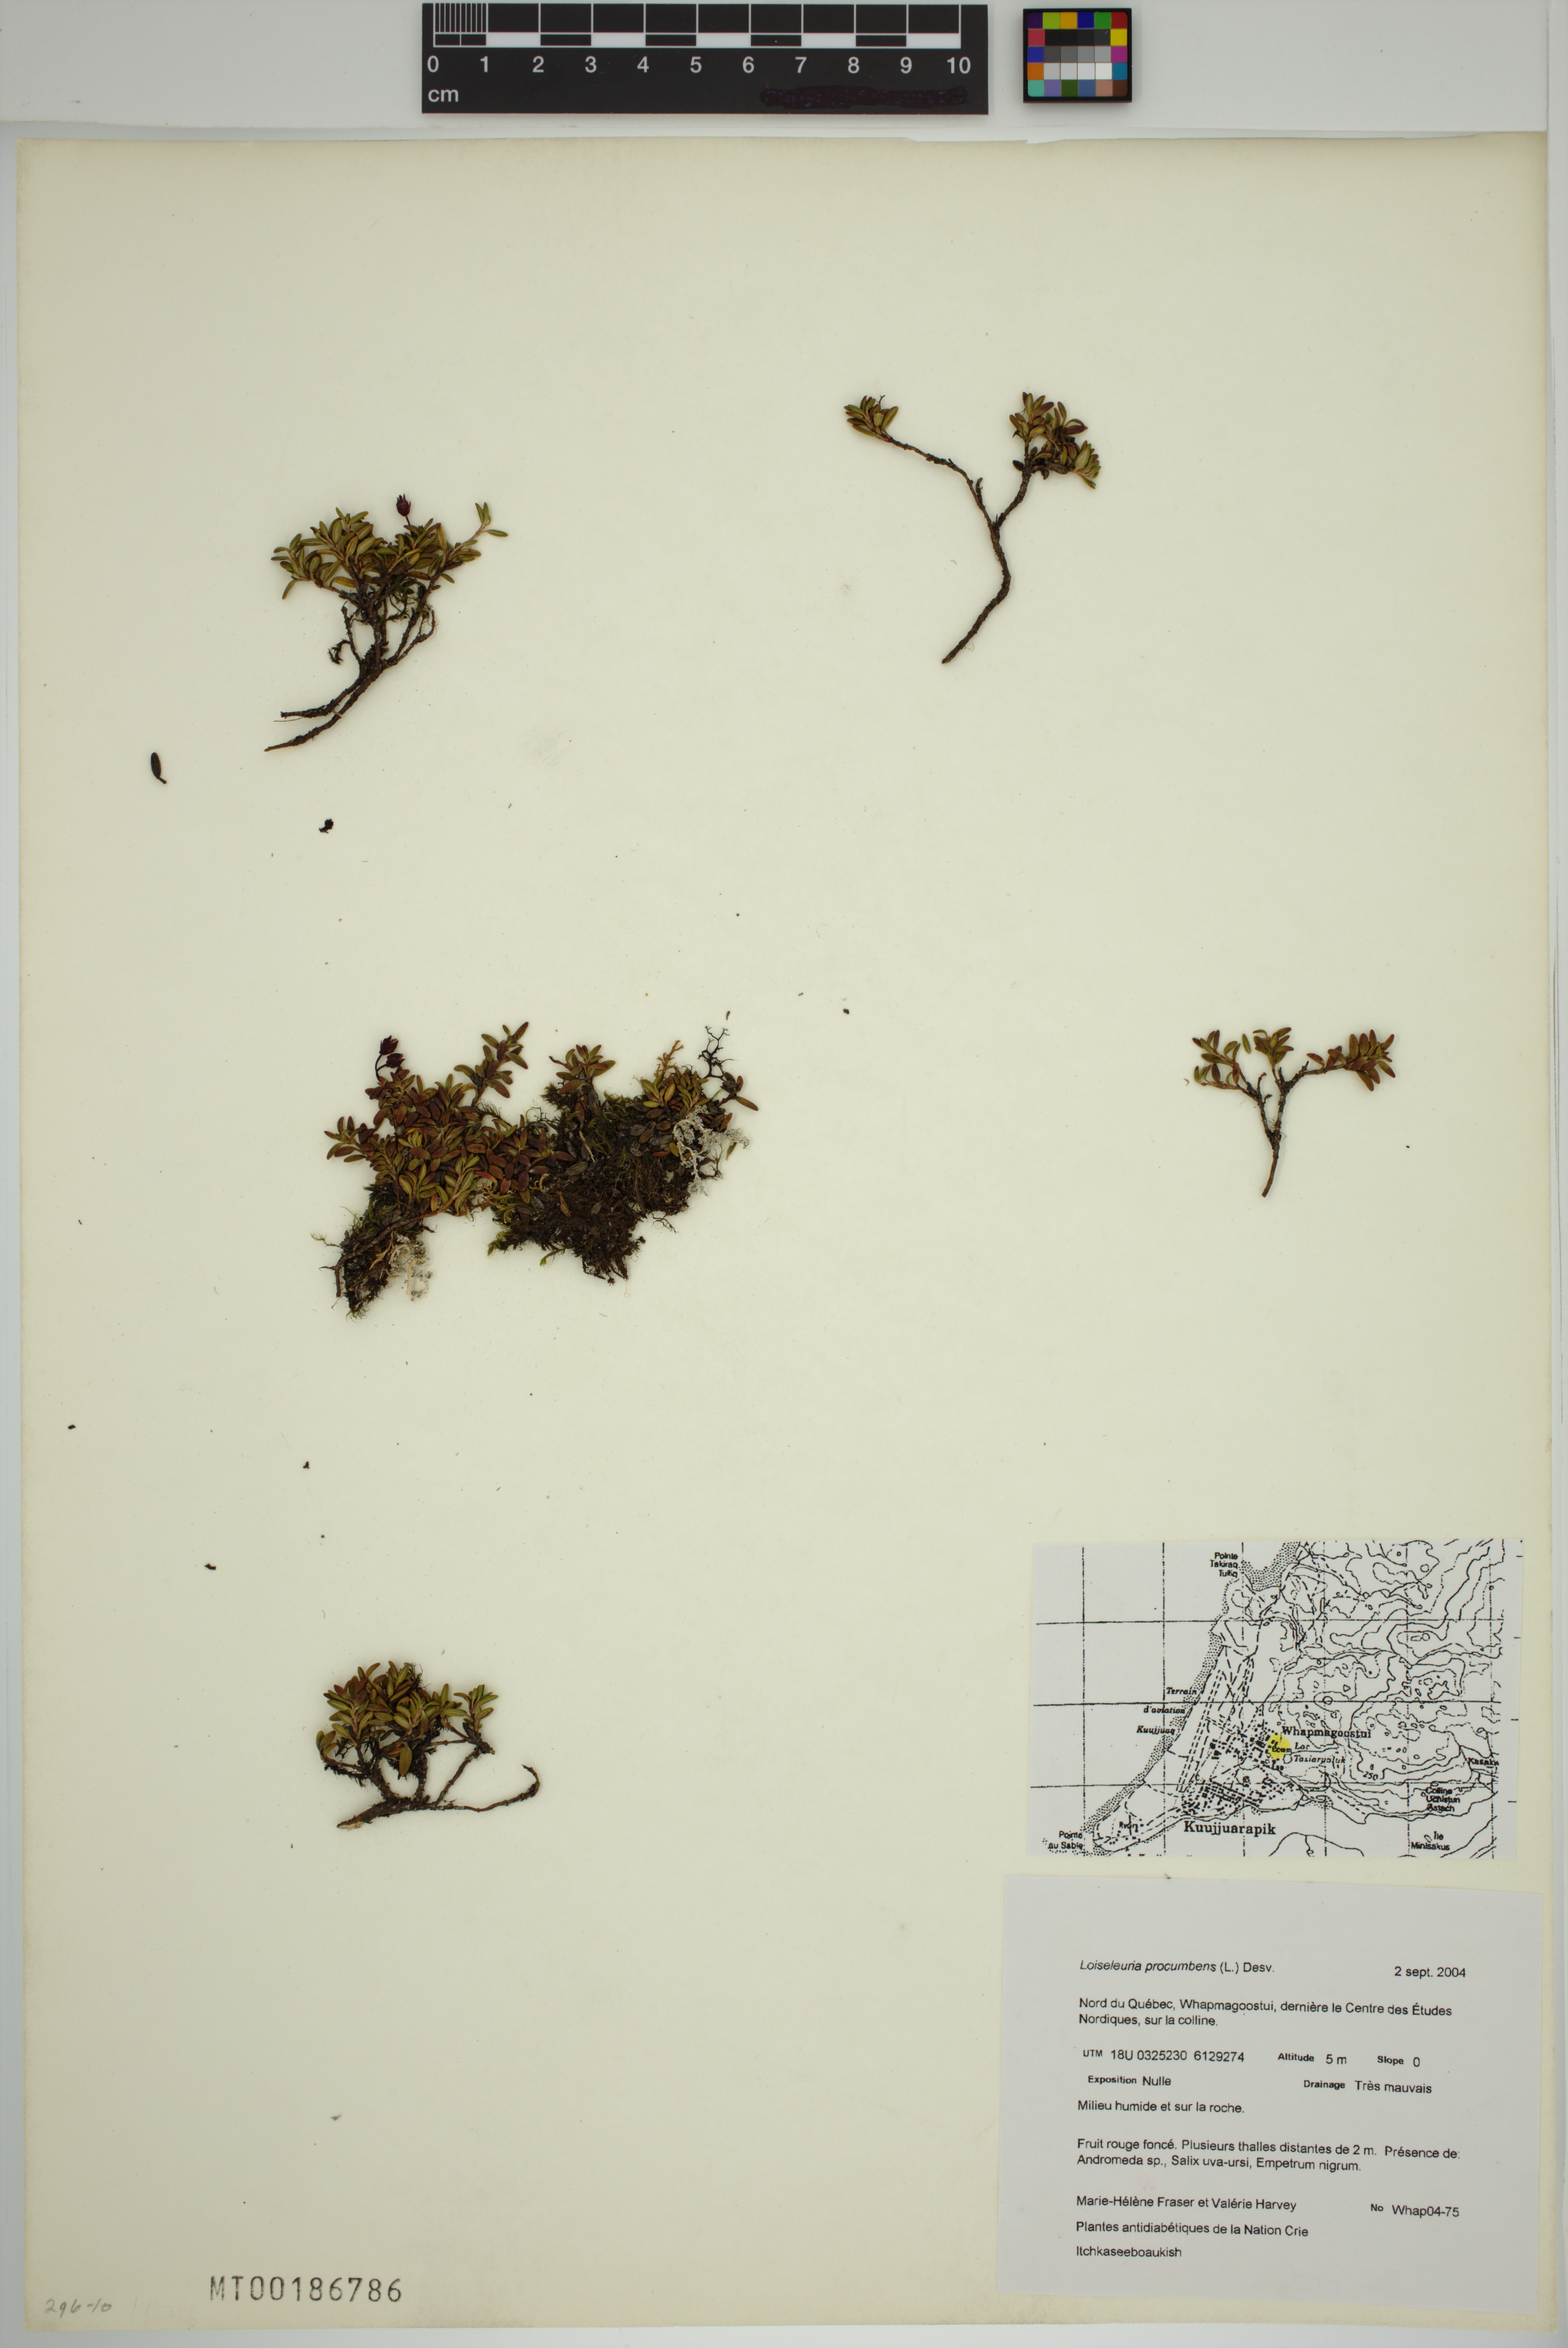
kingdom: Plantae
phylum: Tracheophyta
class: Magnoliopsida
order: Ericales
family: Ericaceae
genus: Kalmia
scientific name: Kalmia procumbens
